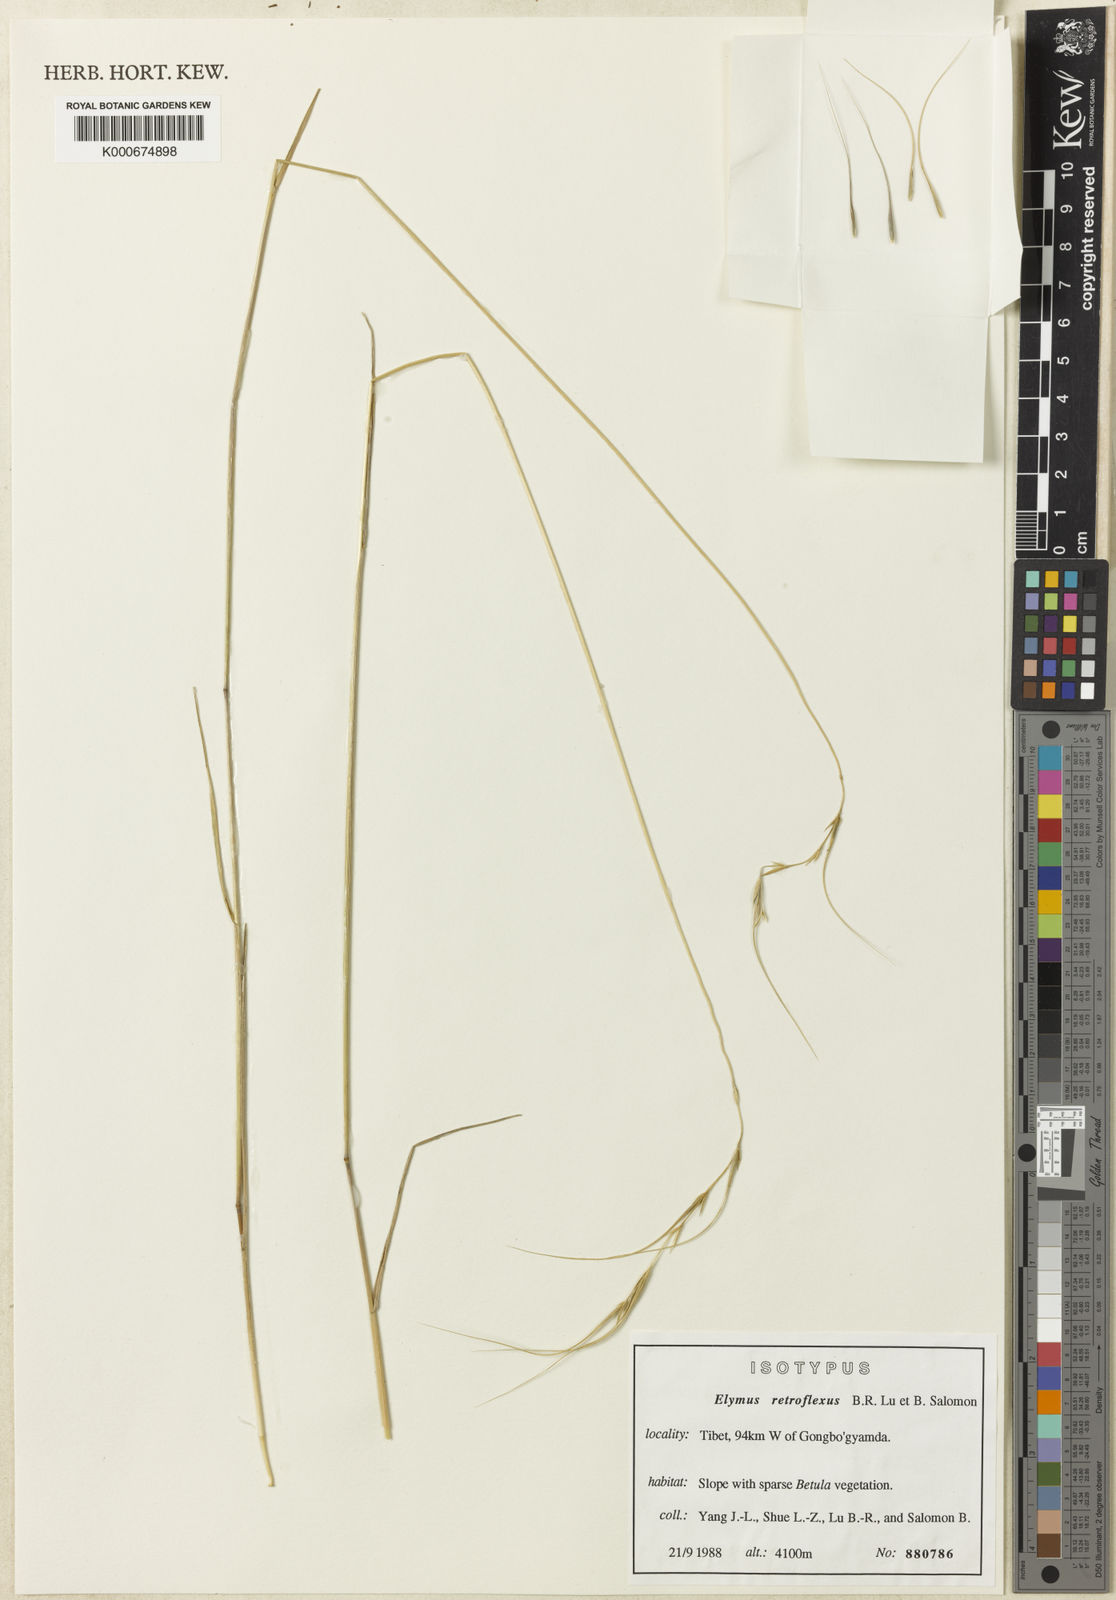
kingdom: Plantae
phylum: Tracheophyta
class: Liliopsida
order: Poales
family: Poaceae
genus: Elymus
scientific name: Elymus retroflexus
